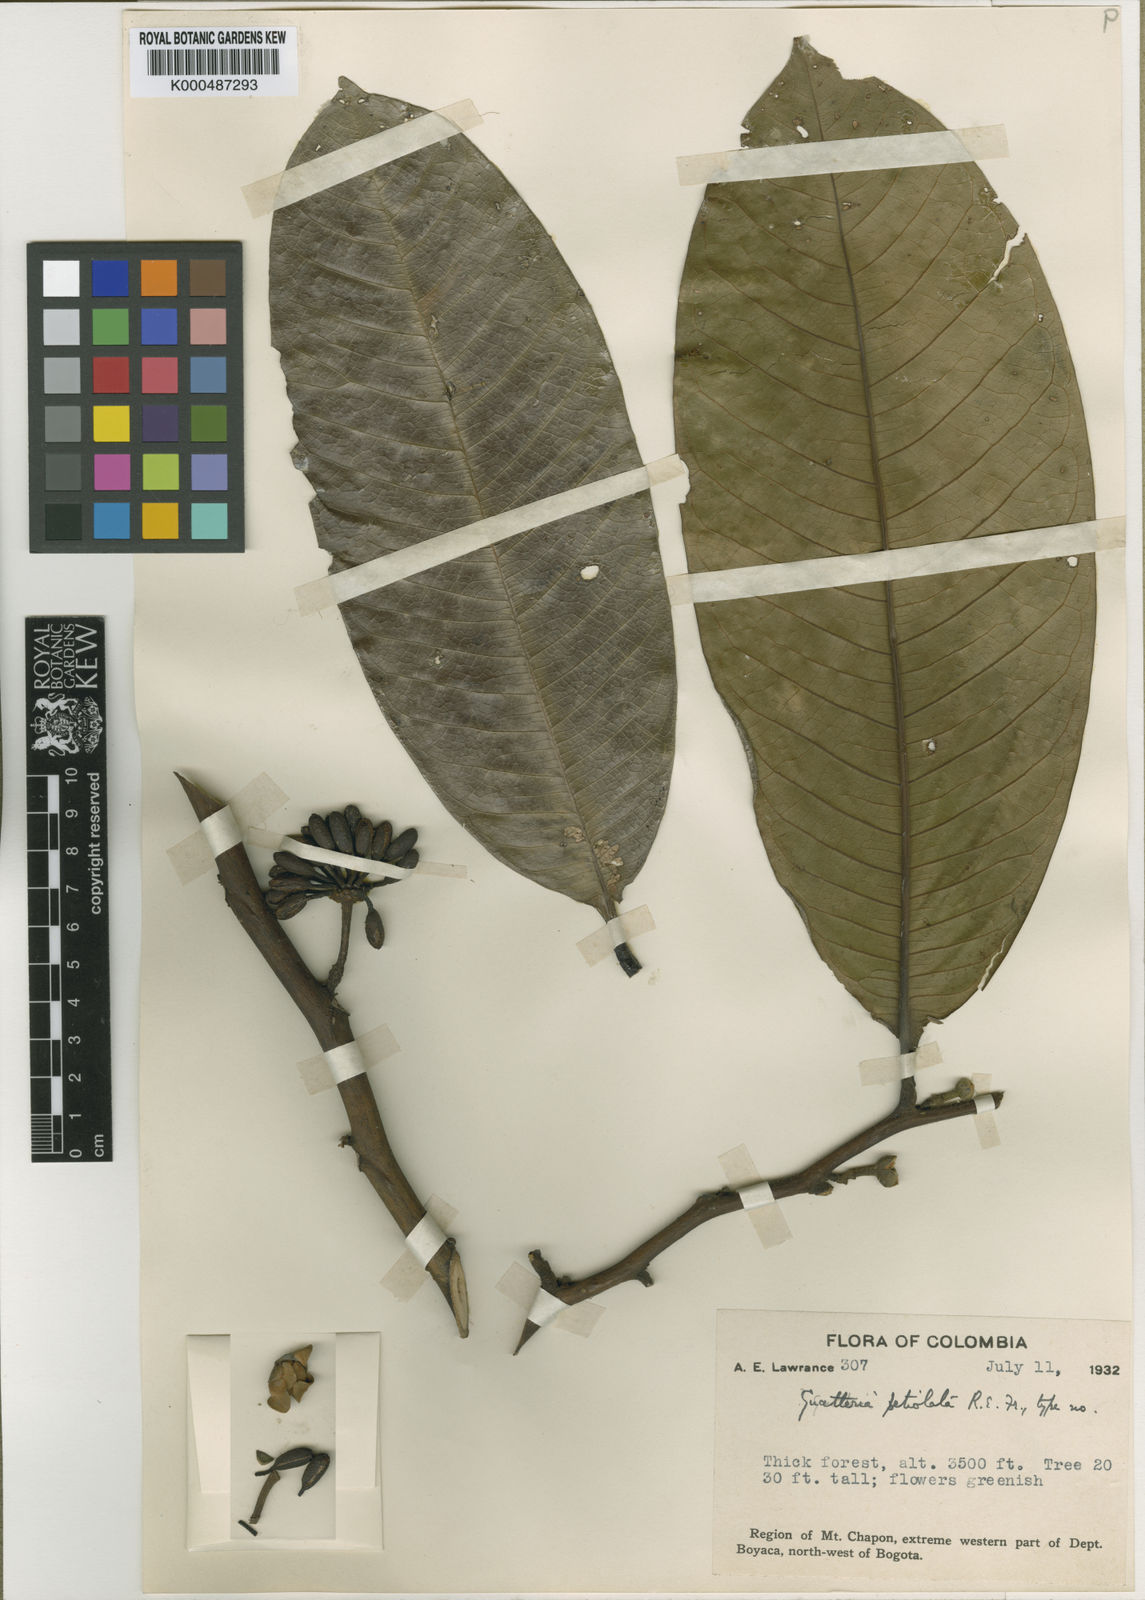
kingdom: Plantae
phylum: Tracheophyta
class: Magnoliopsida
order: Magnoliales
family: Annonaceae
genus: Guatteria
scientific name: Guatteria petiolata
